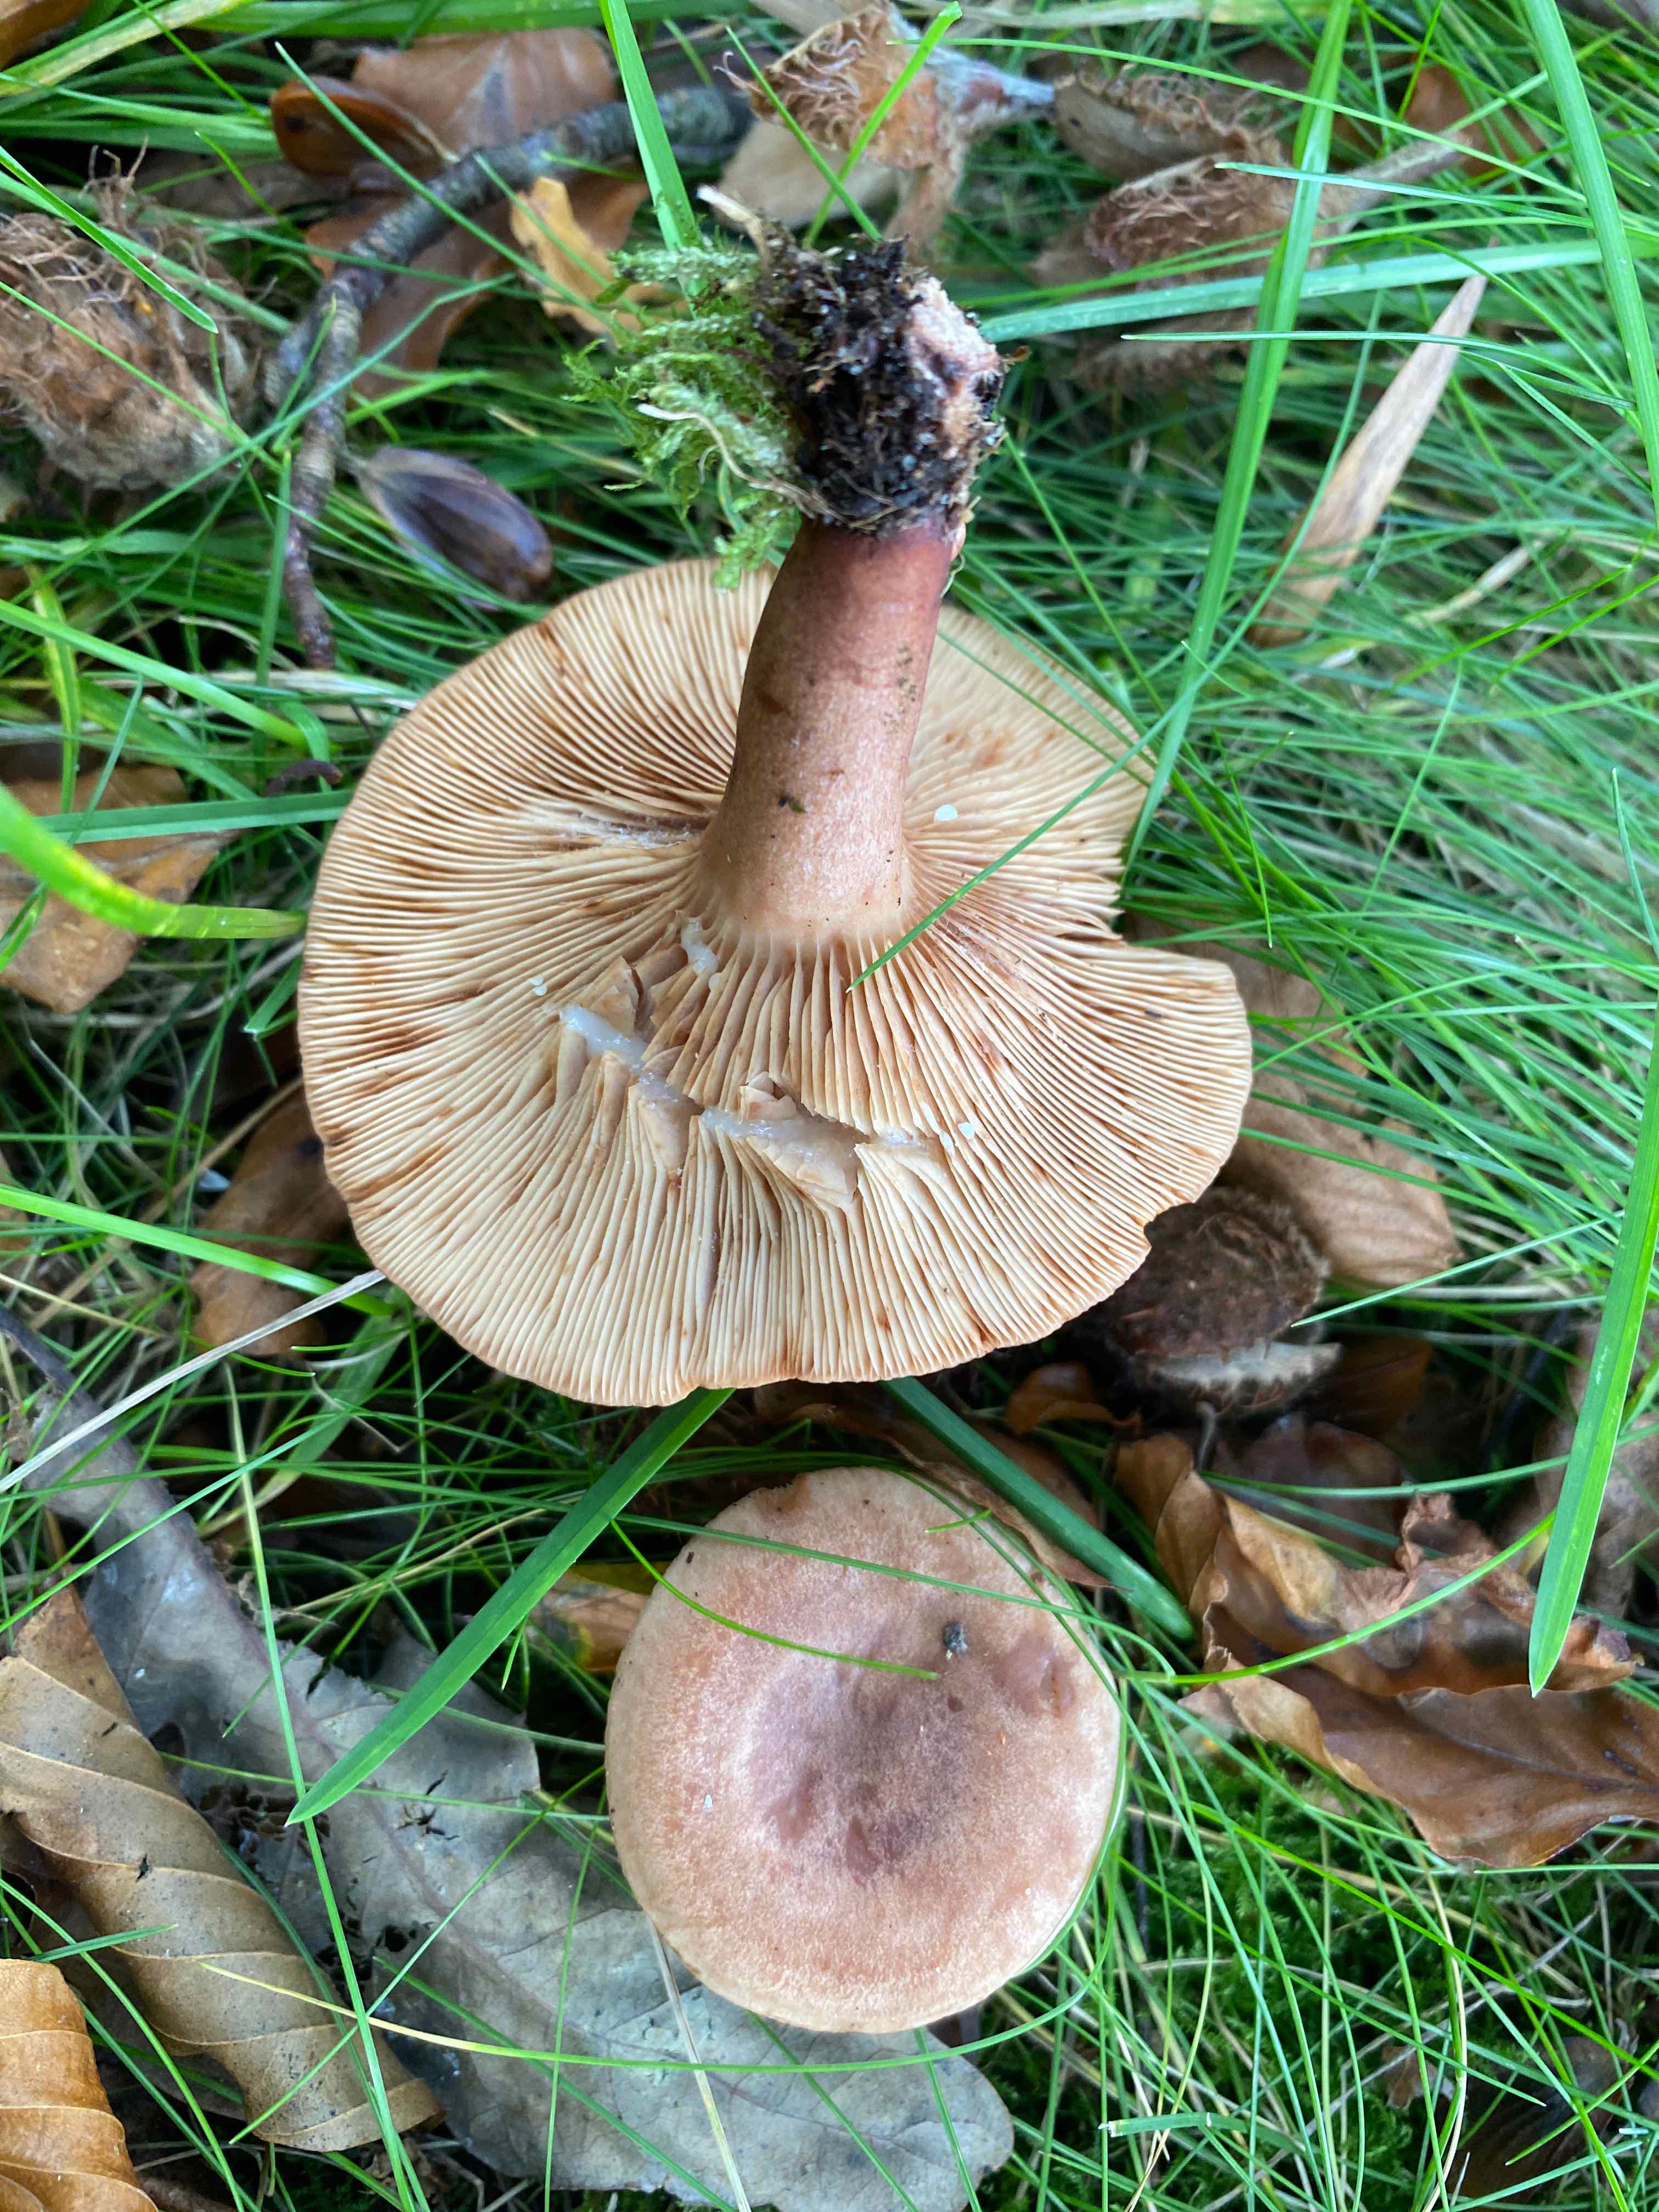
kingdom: Fungi
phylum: Basidiomycota
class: Agaricomycetes
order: Russulales
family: Russulaceae
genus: Lactarius
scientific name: Lactarius quietus
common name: ege-mælkehat
